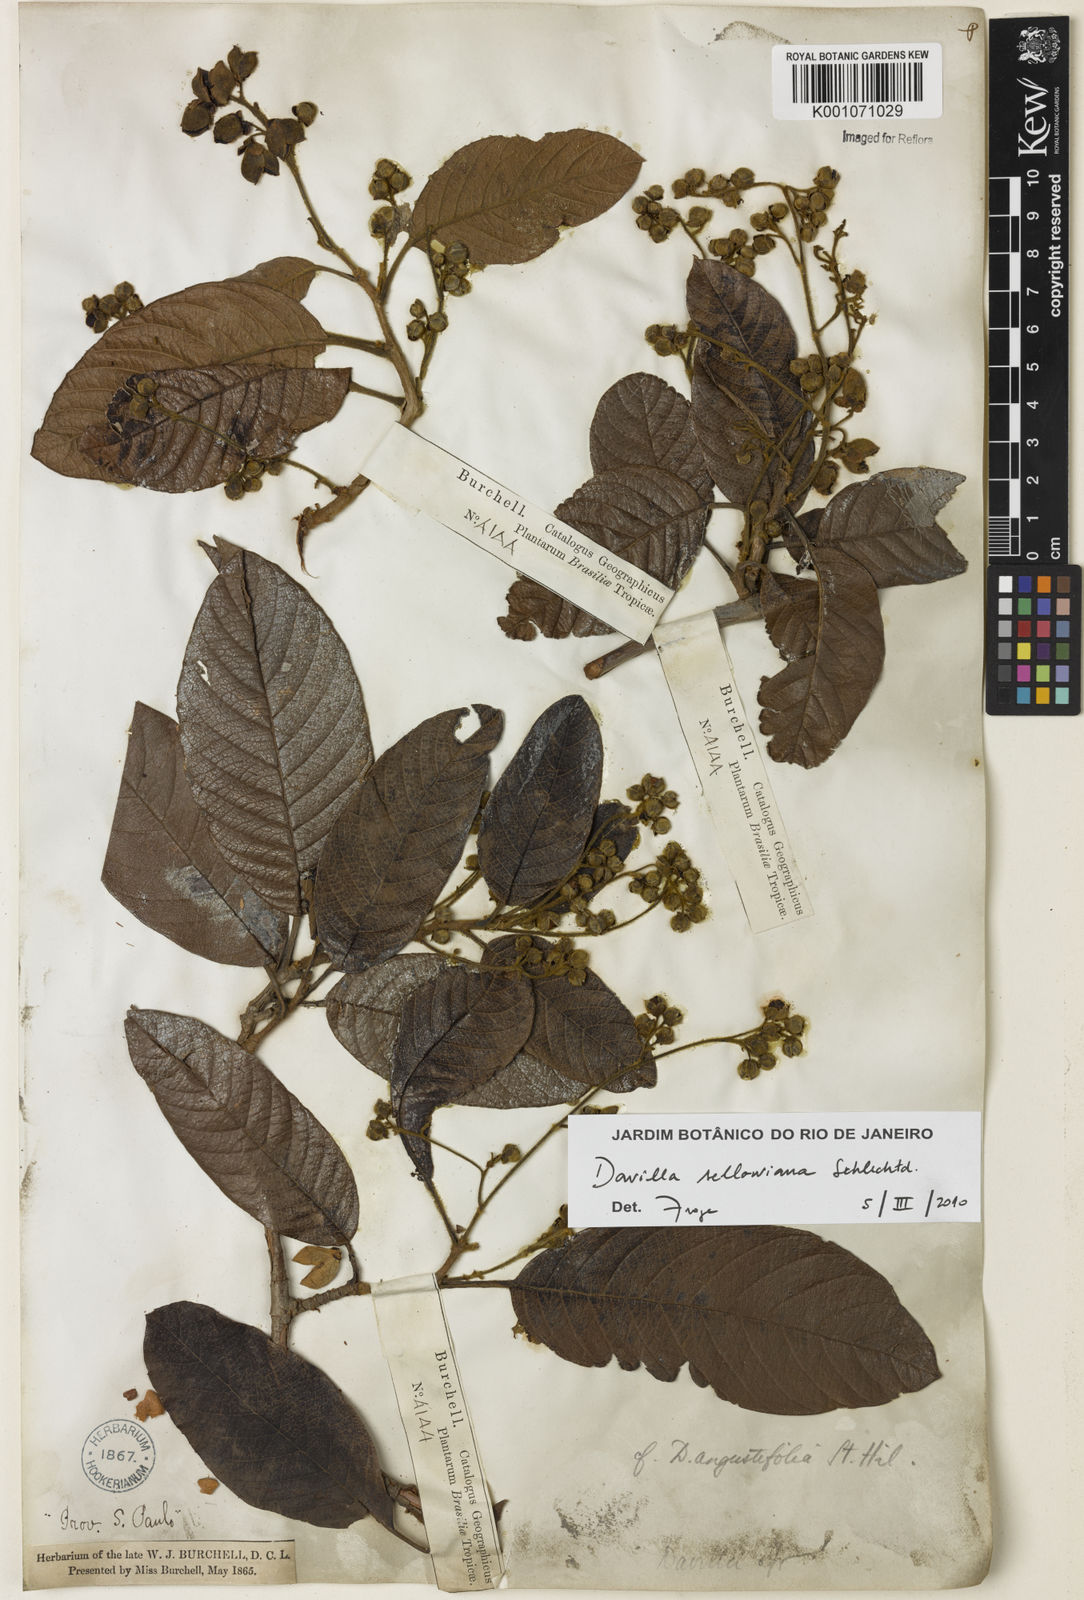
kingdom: Plantae
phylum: Tracheophyta
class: Magnoliopsida
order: Dilleniales
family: Dilleniaceae
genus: Davilla
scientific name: Davilla sellowiana
